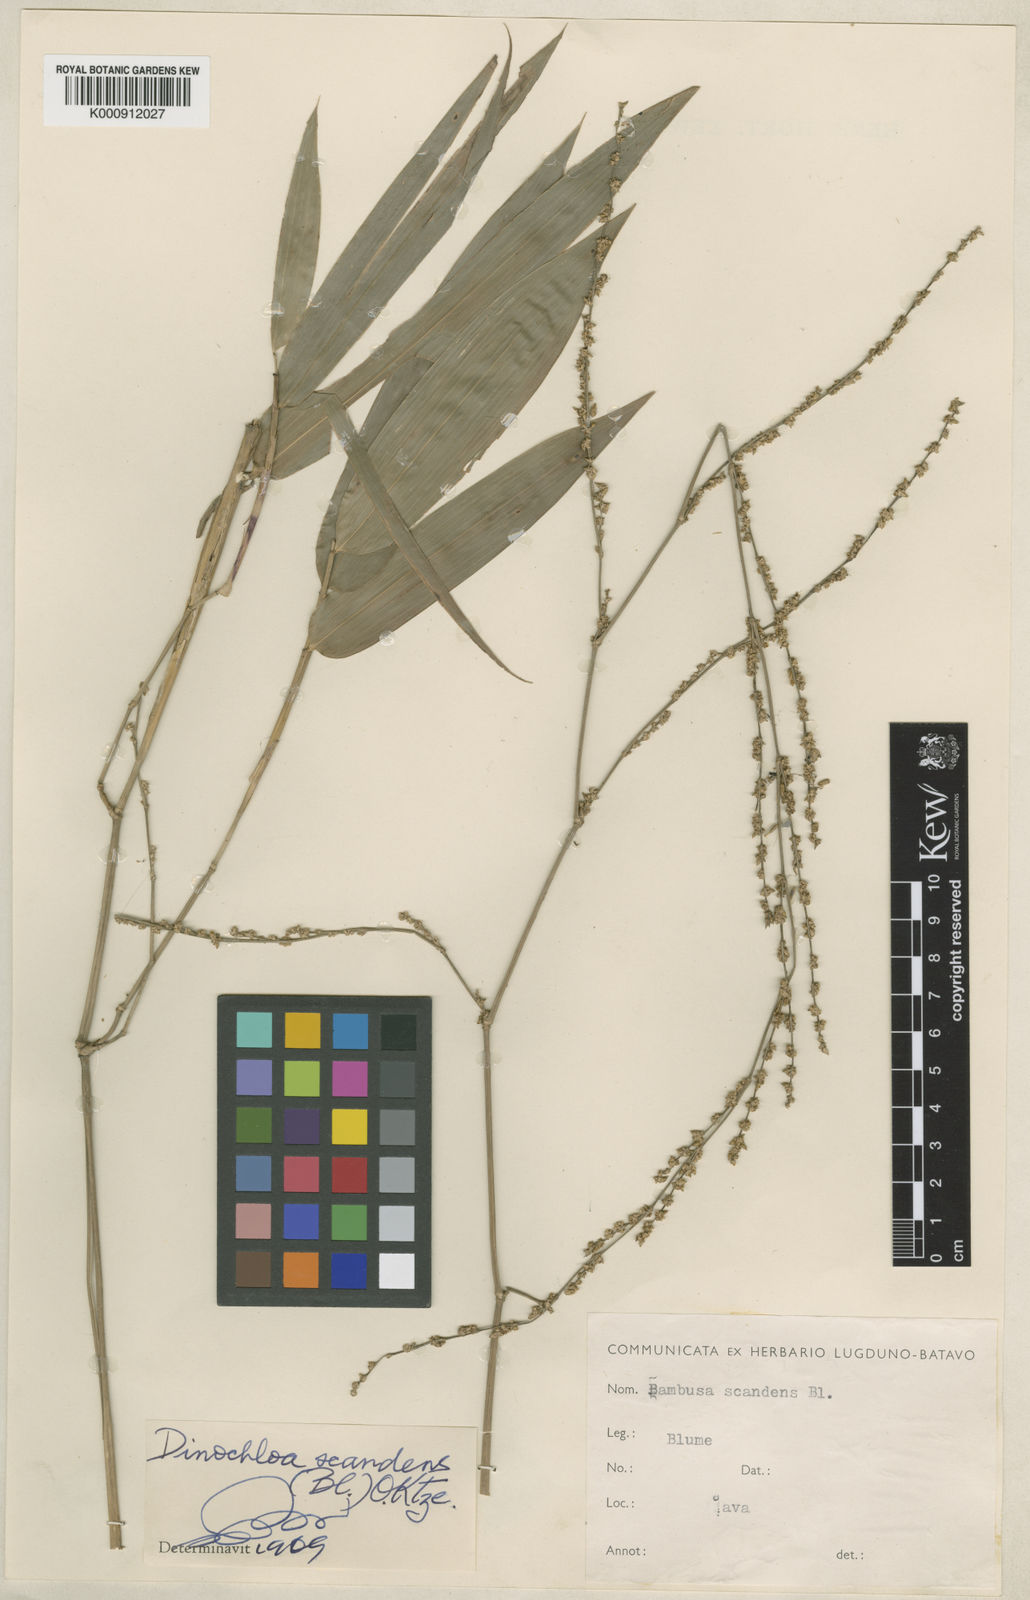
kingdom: Plantae
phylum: Tracheophyta
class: Liliopsida
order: Poales
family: Poaceae
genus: Dinochloa
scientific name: Dinochloa scandens
